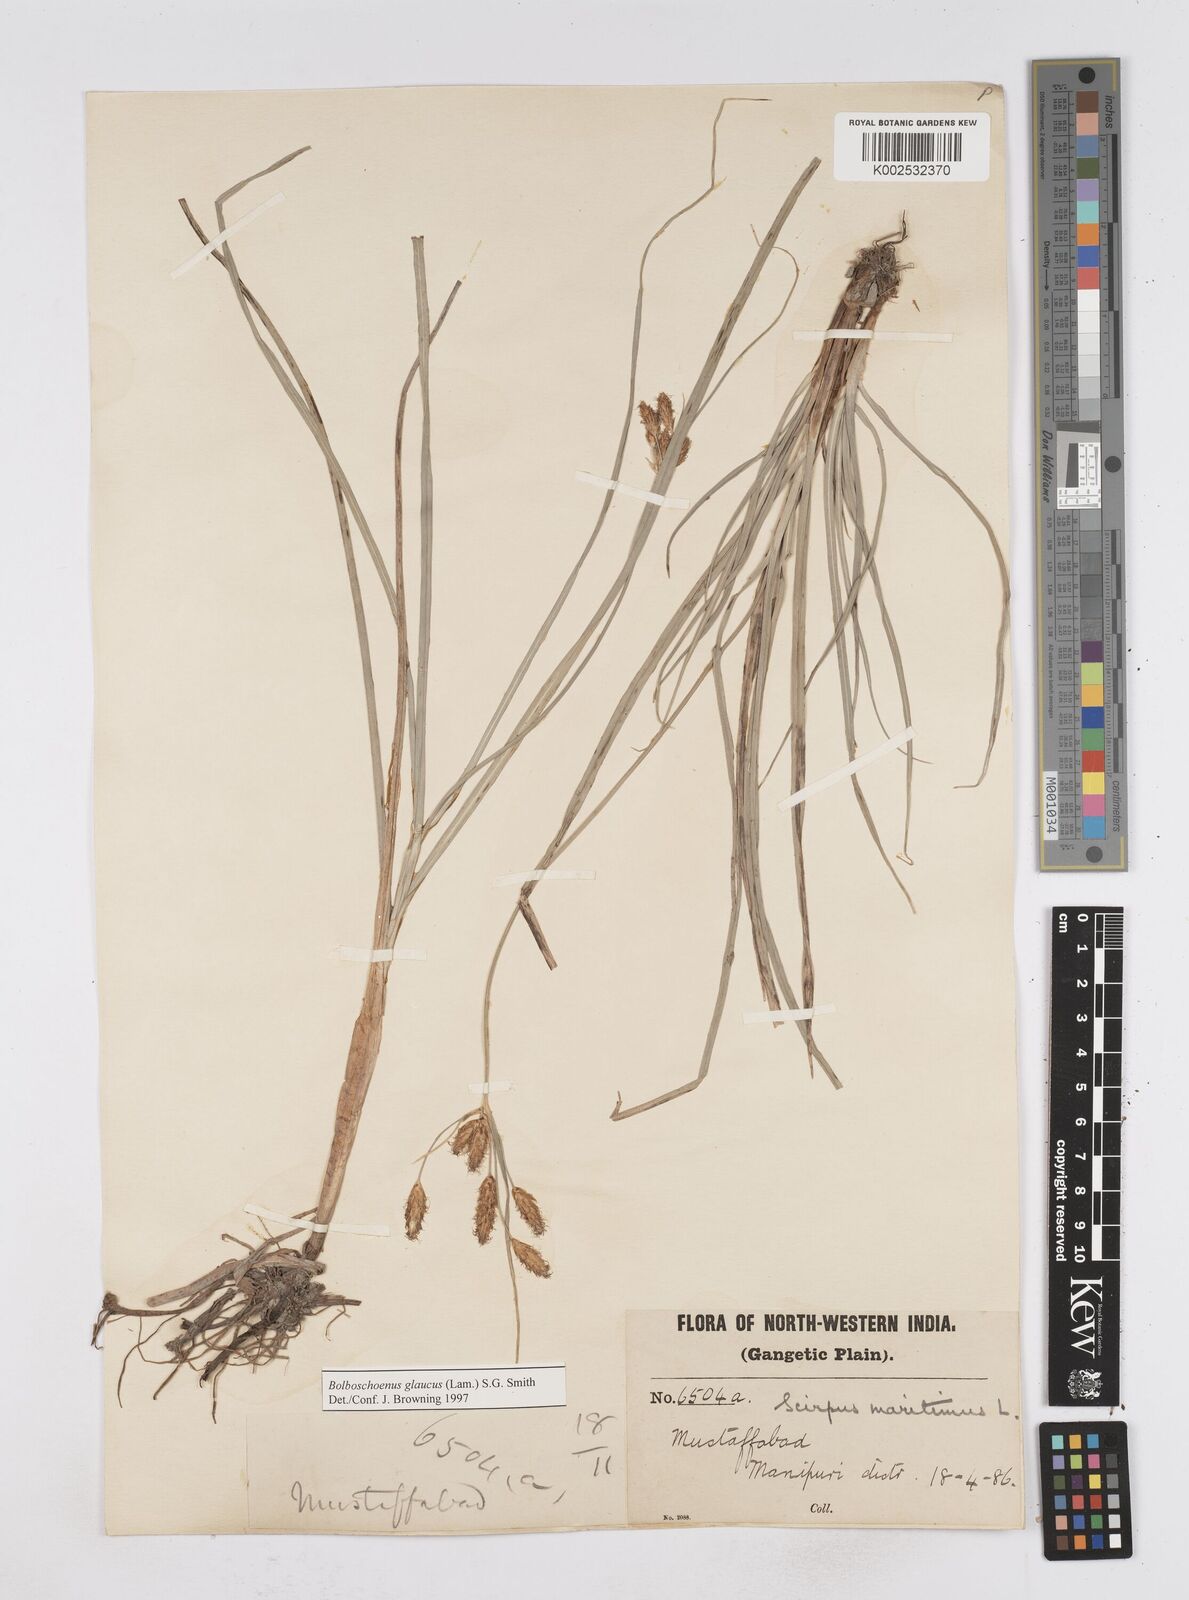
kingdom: Plantae
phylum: Tracheophyta
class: Liliopsida
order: Poales
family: Cyperaceae
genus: Bolboschoenus
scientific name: Bolboschoenus maritimus
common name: Sea club-rush
